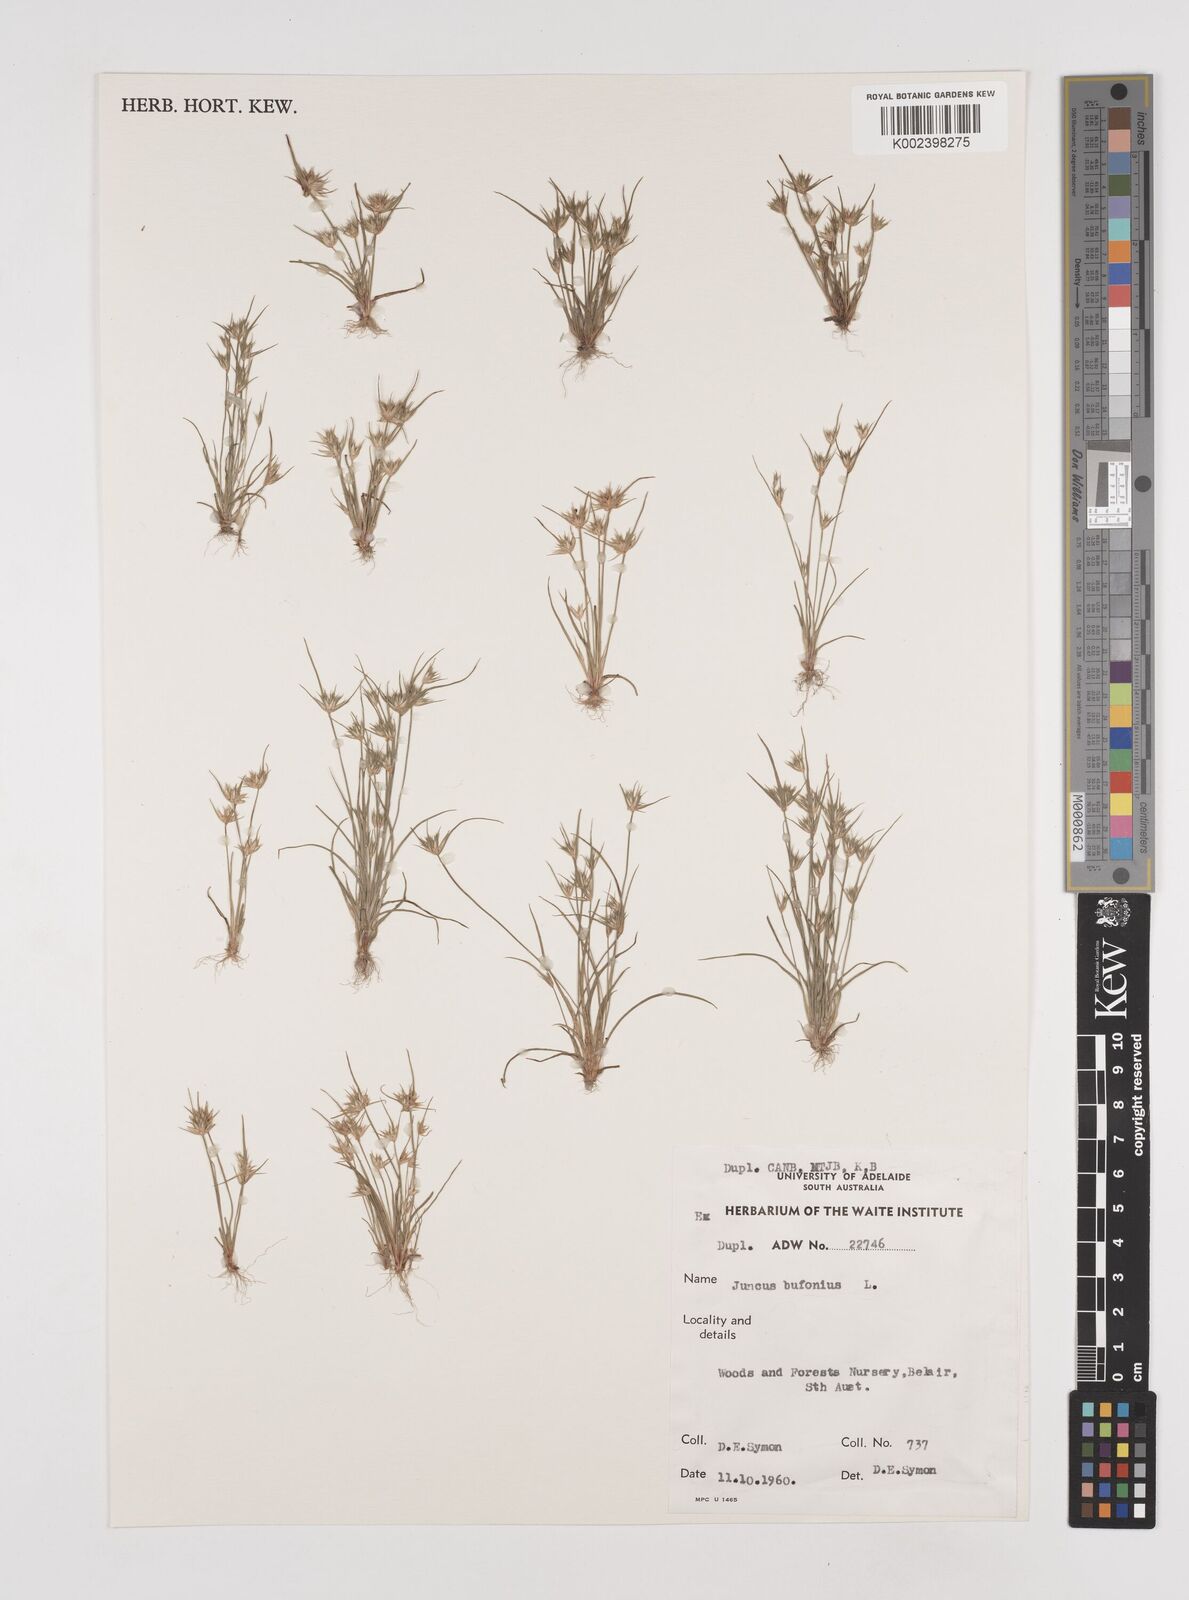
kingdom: Plantae
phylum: Tracheophyta
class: Liliopsida
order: Poales
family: Juncaceae
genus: Juncus
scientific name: Juncus bufonius
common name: Toad rush
